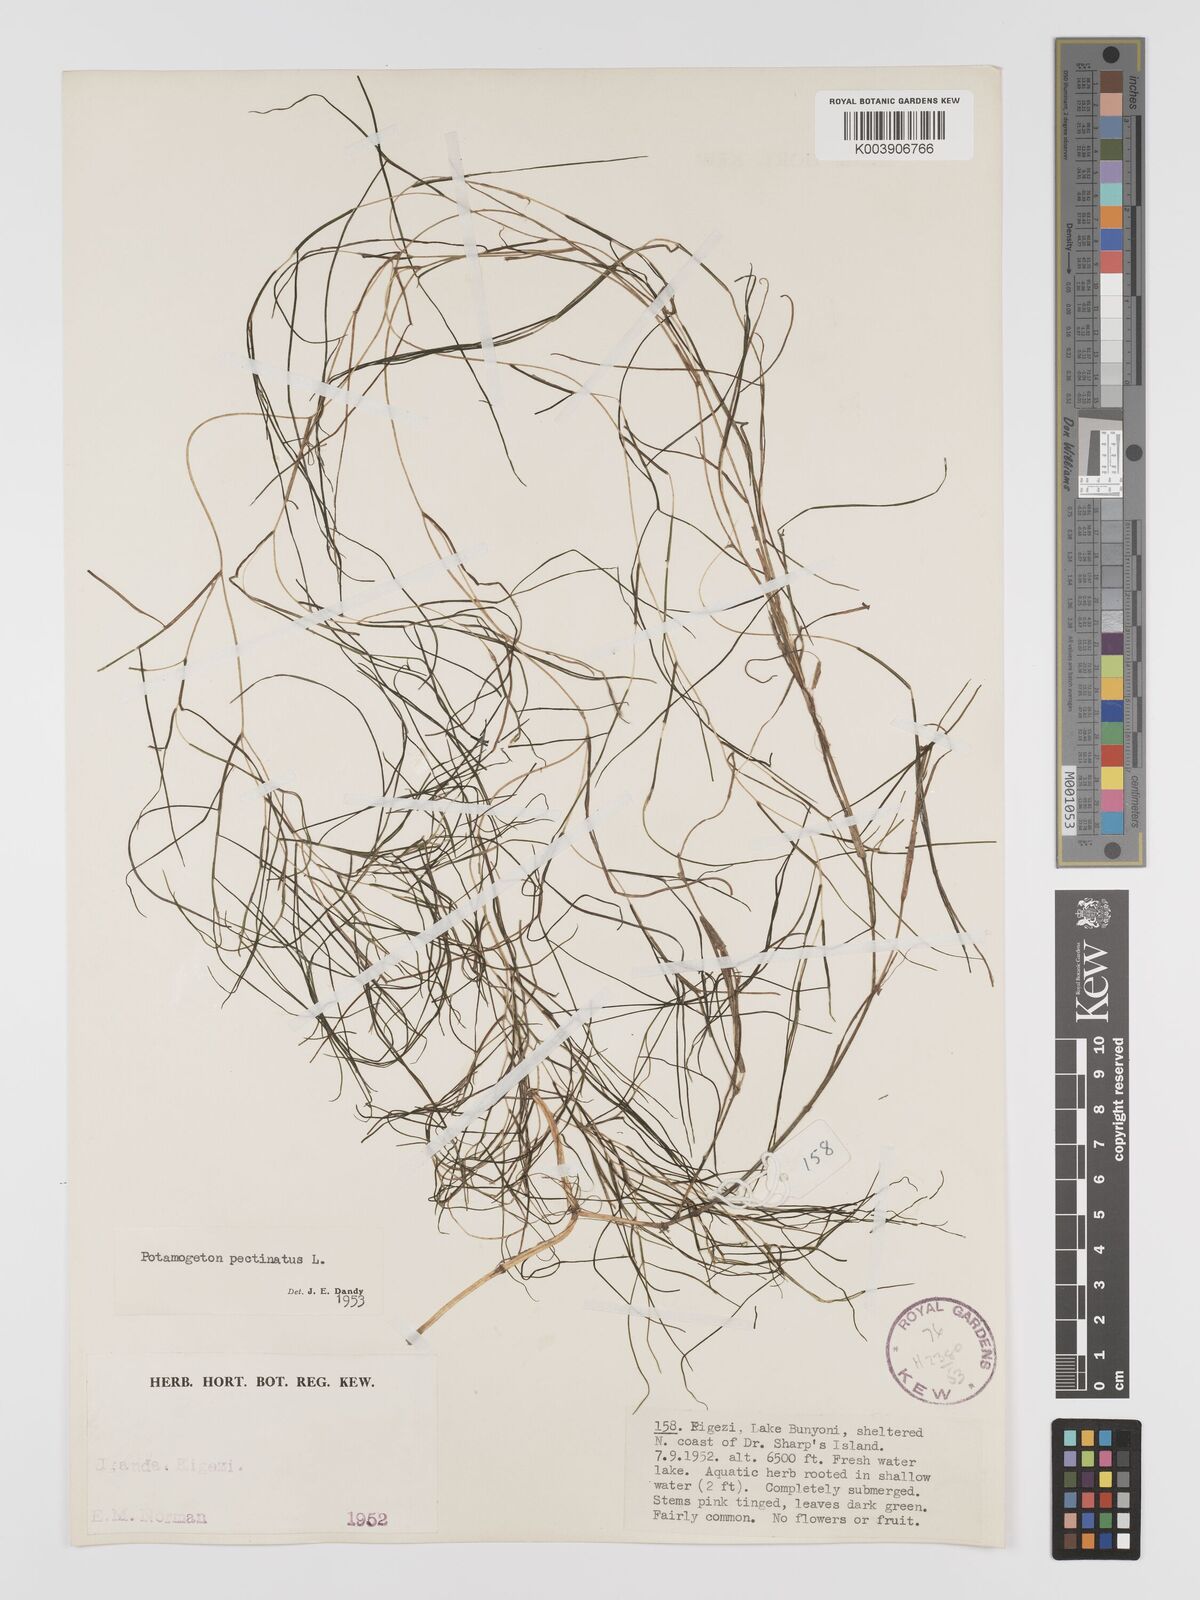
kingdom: Plantae
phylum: Tracheophyta
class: Liliopsida
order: Alismatales
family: Potamogetonaceae
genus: Stuckenia
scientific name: Stuckenia pectinata
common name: Sago pondweed
